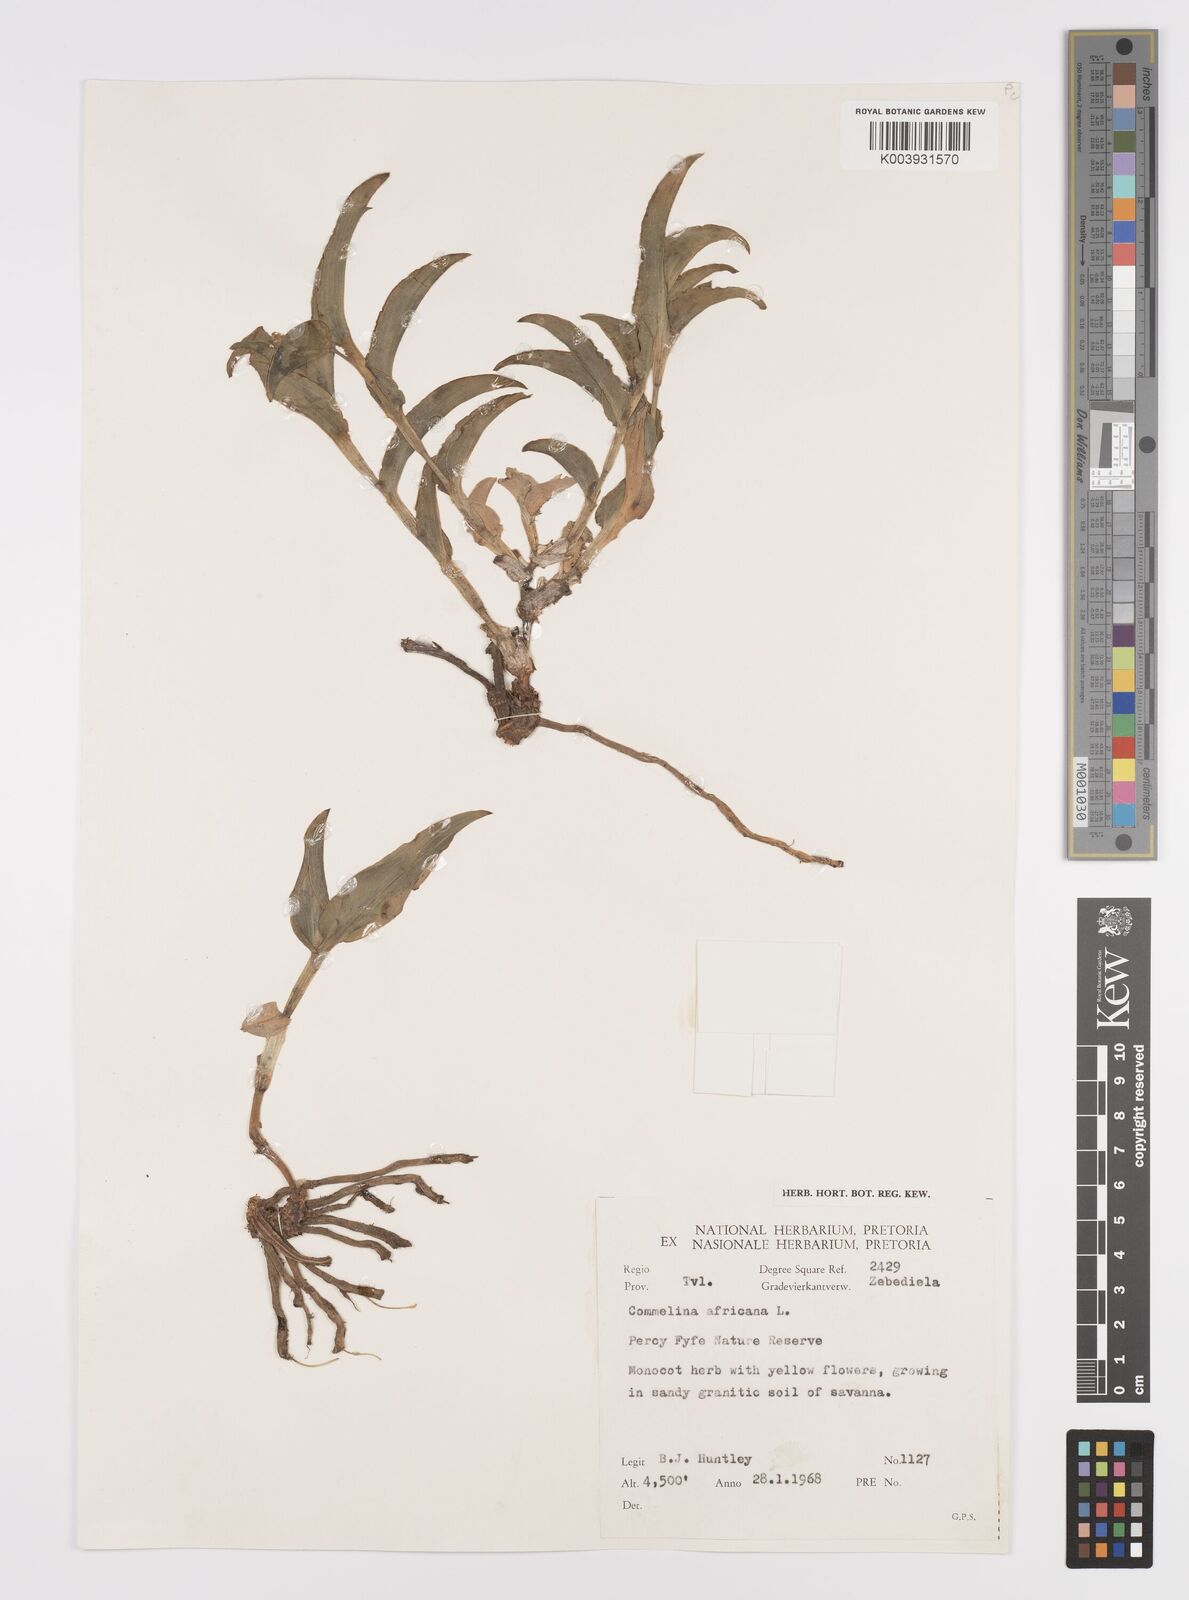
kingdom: Plantae
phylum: Tracheophyta
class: Liliopsida
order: Commelinales
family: Commelinaceae
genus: Commelina
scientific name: Commelina africana
